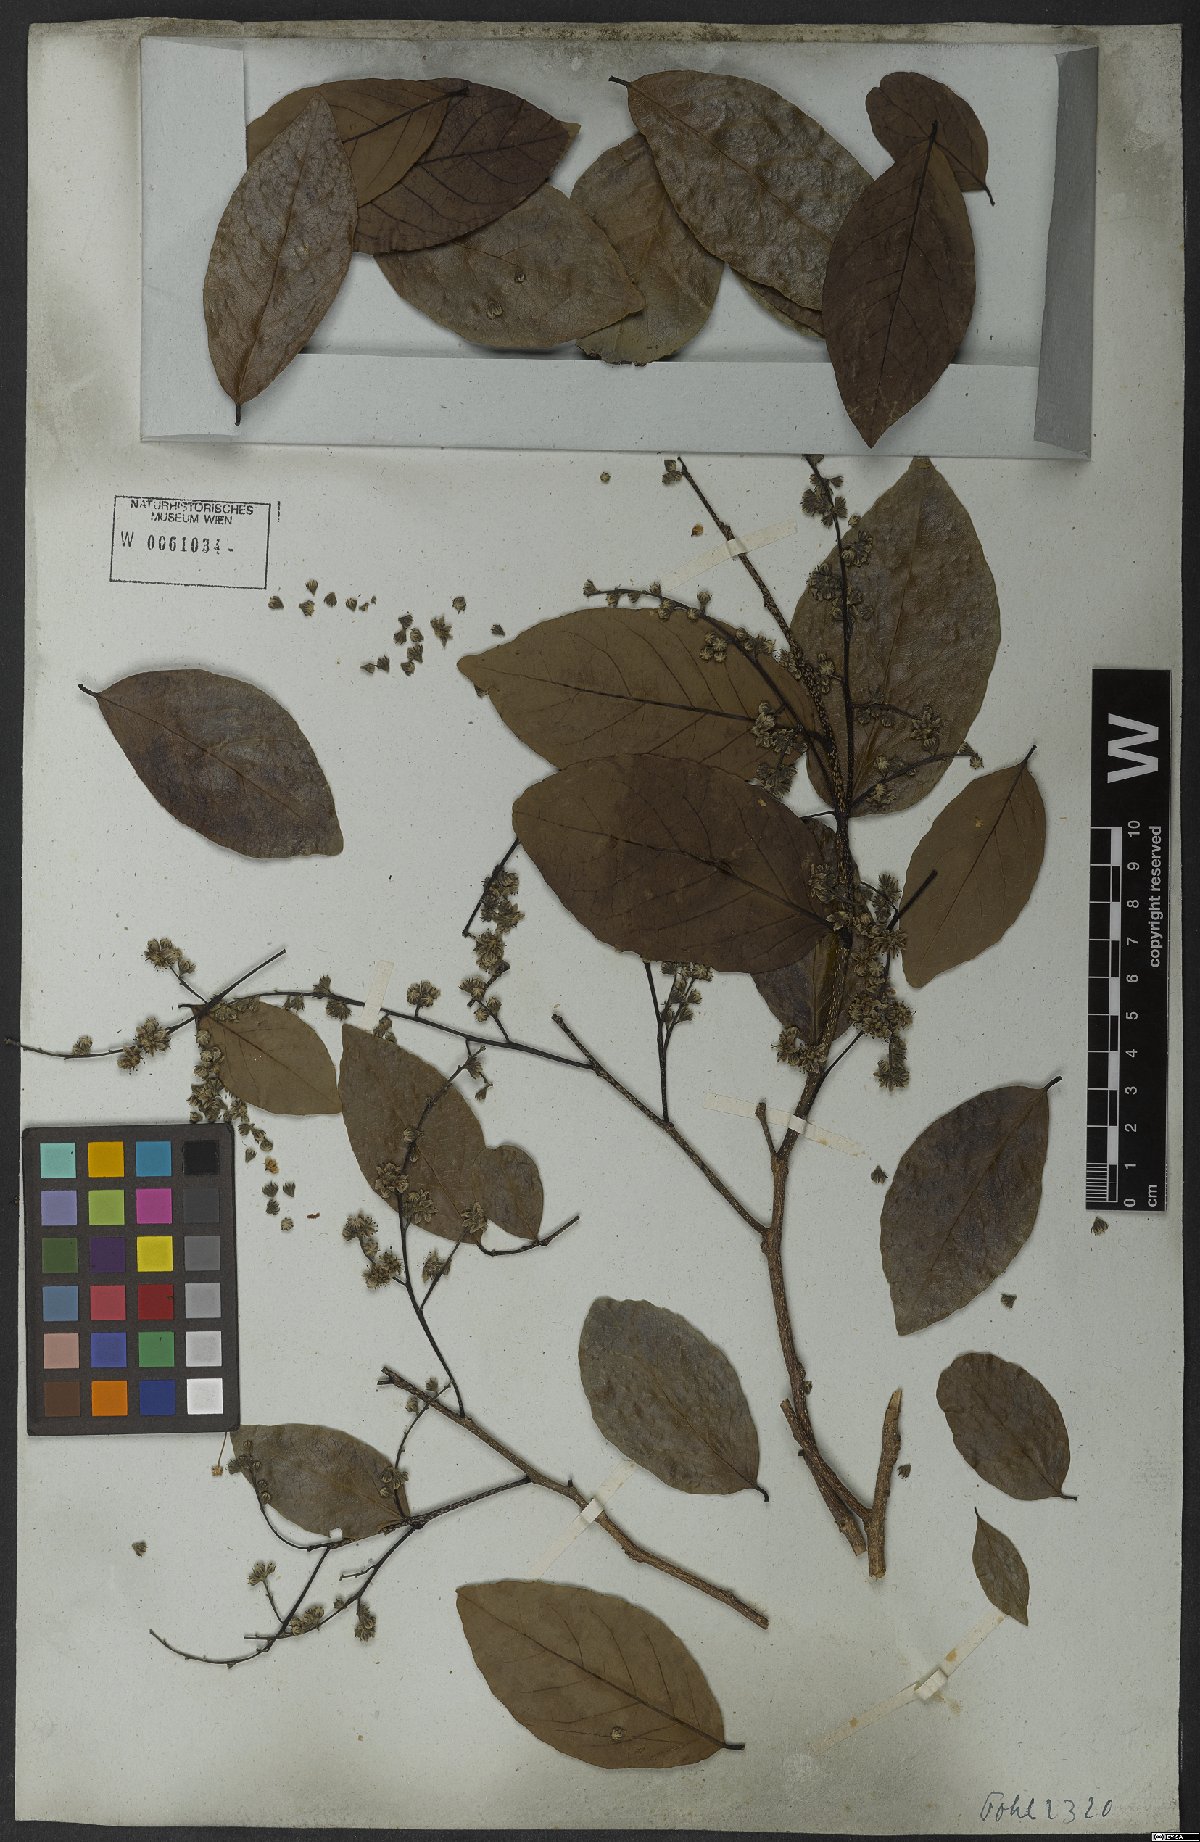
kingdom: Plantae
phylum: Tracheophyta
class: Magnoliopsida
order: Malpighiales
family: Salicaceae
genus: Homalium
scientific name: Homalium
